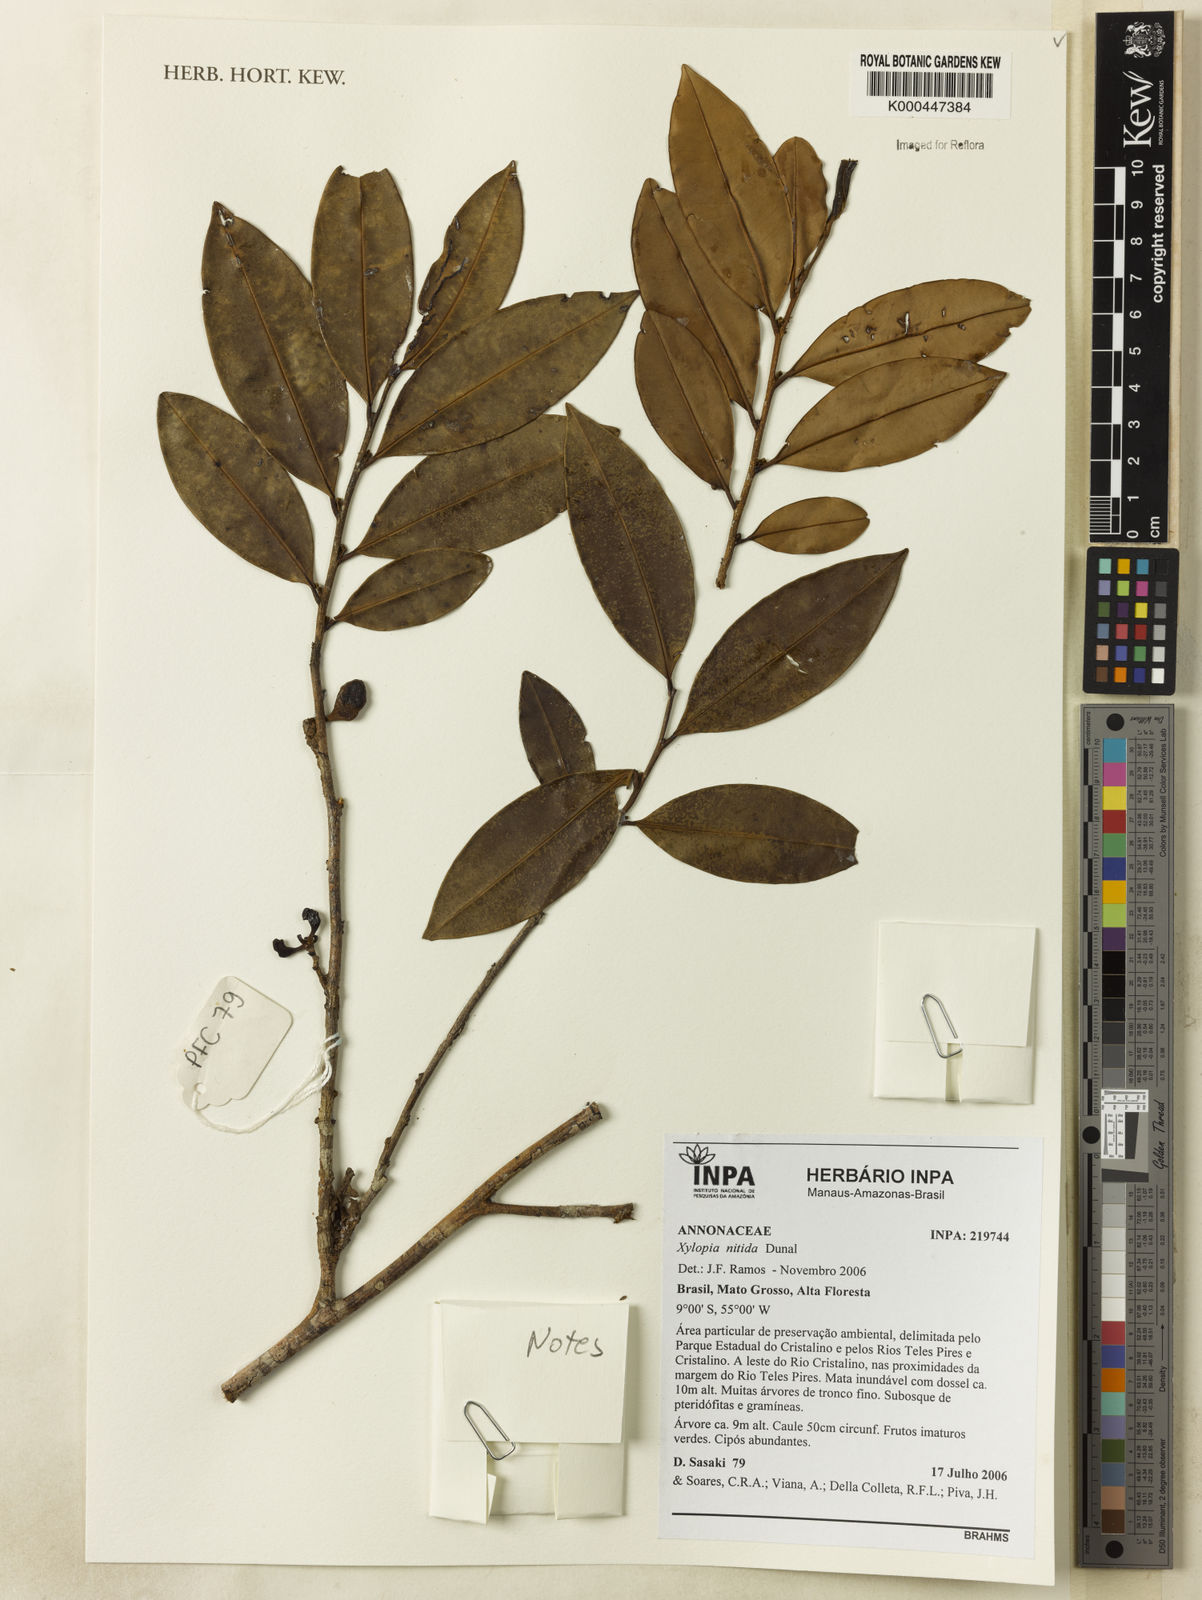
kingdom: Plantae
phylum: Tracheophyta
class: Magnoliopsida
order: Magnoliales
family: Annonaceae
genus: Xylopia
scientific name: Xylopia nitida
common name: White kuyama
